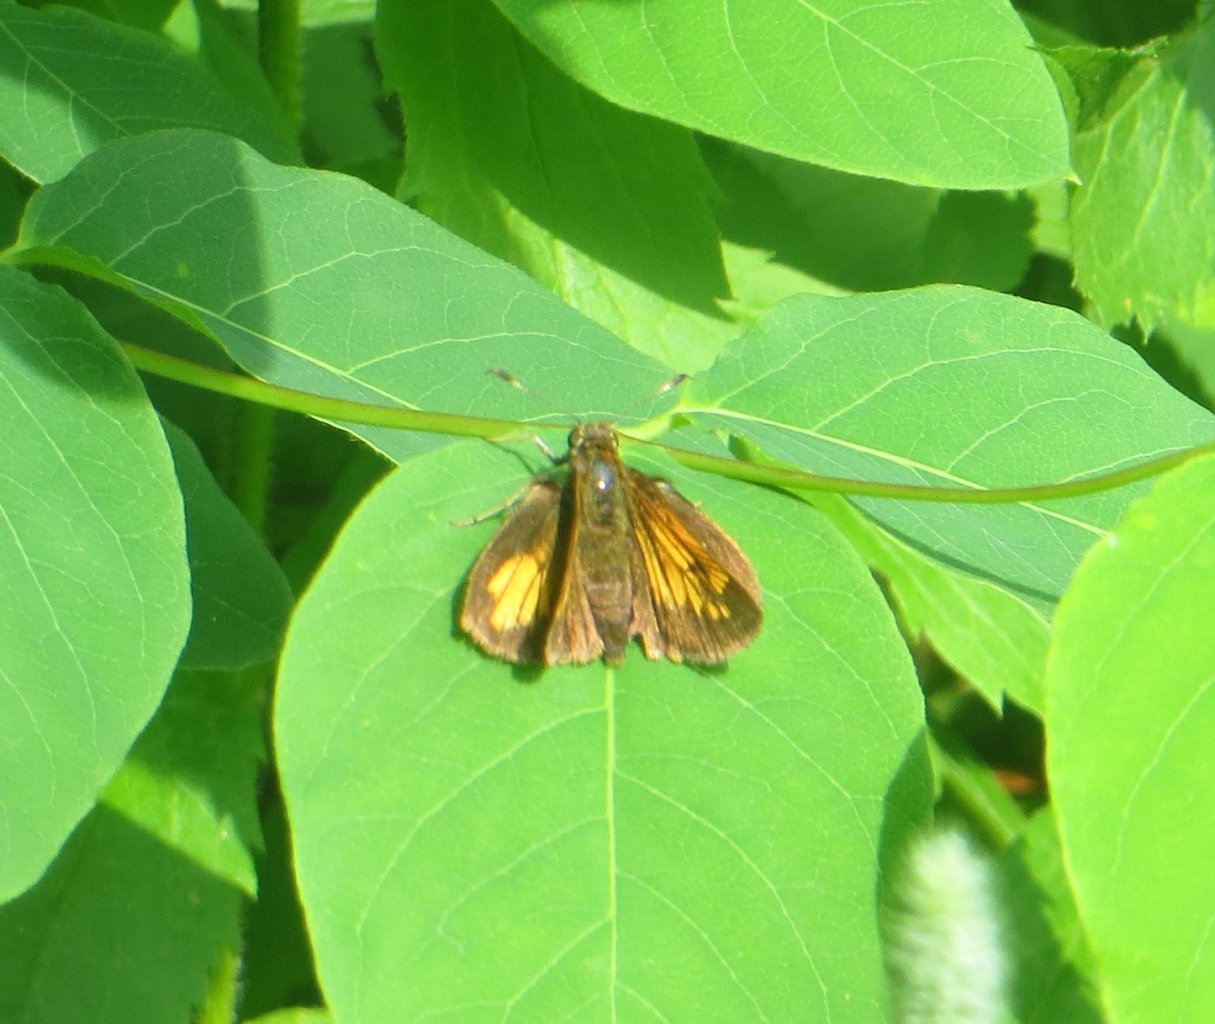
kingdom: Animalia
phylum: Arthropoda
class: Insecta
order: Lepidoptera
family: Hesperiidae
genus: Lon
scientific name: Lon hobomok
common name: Hobomok Skipper
